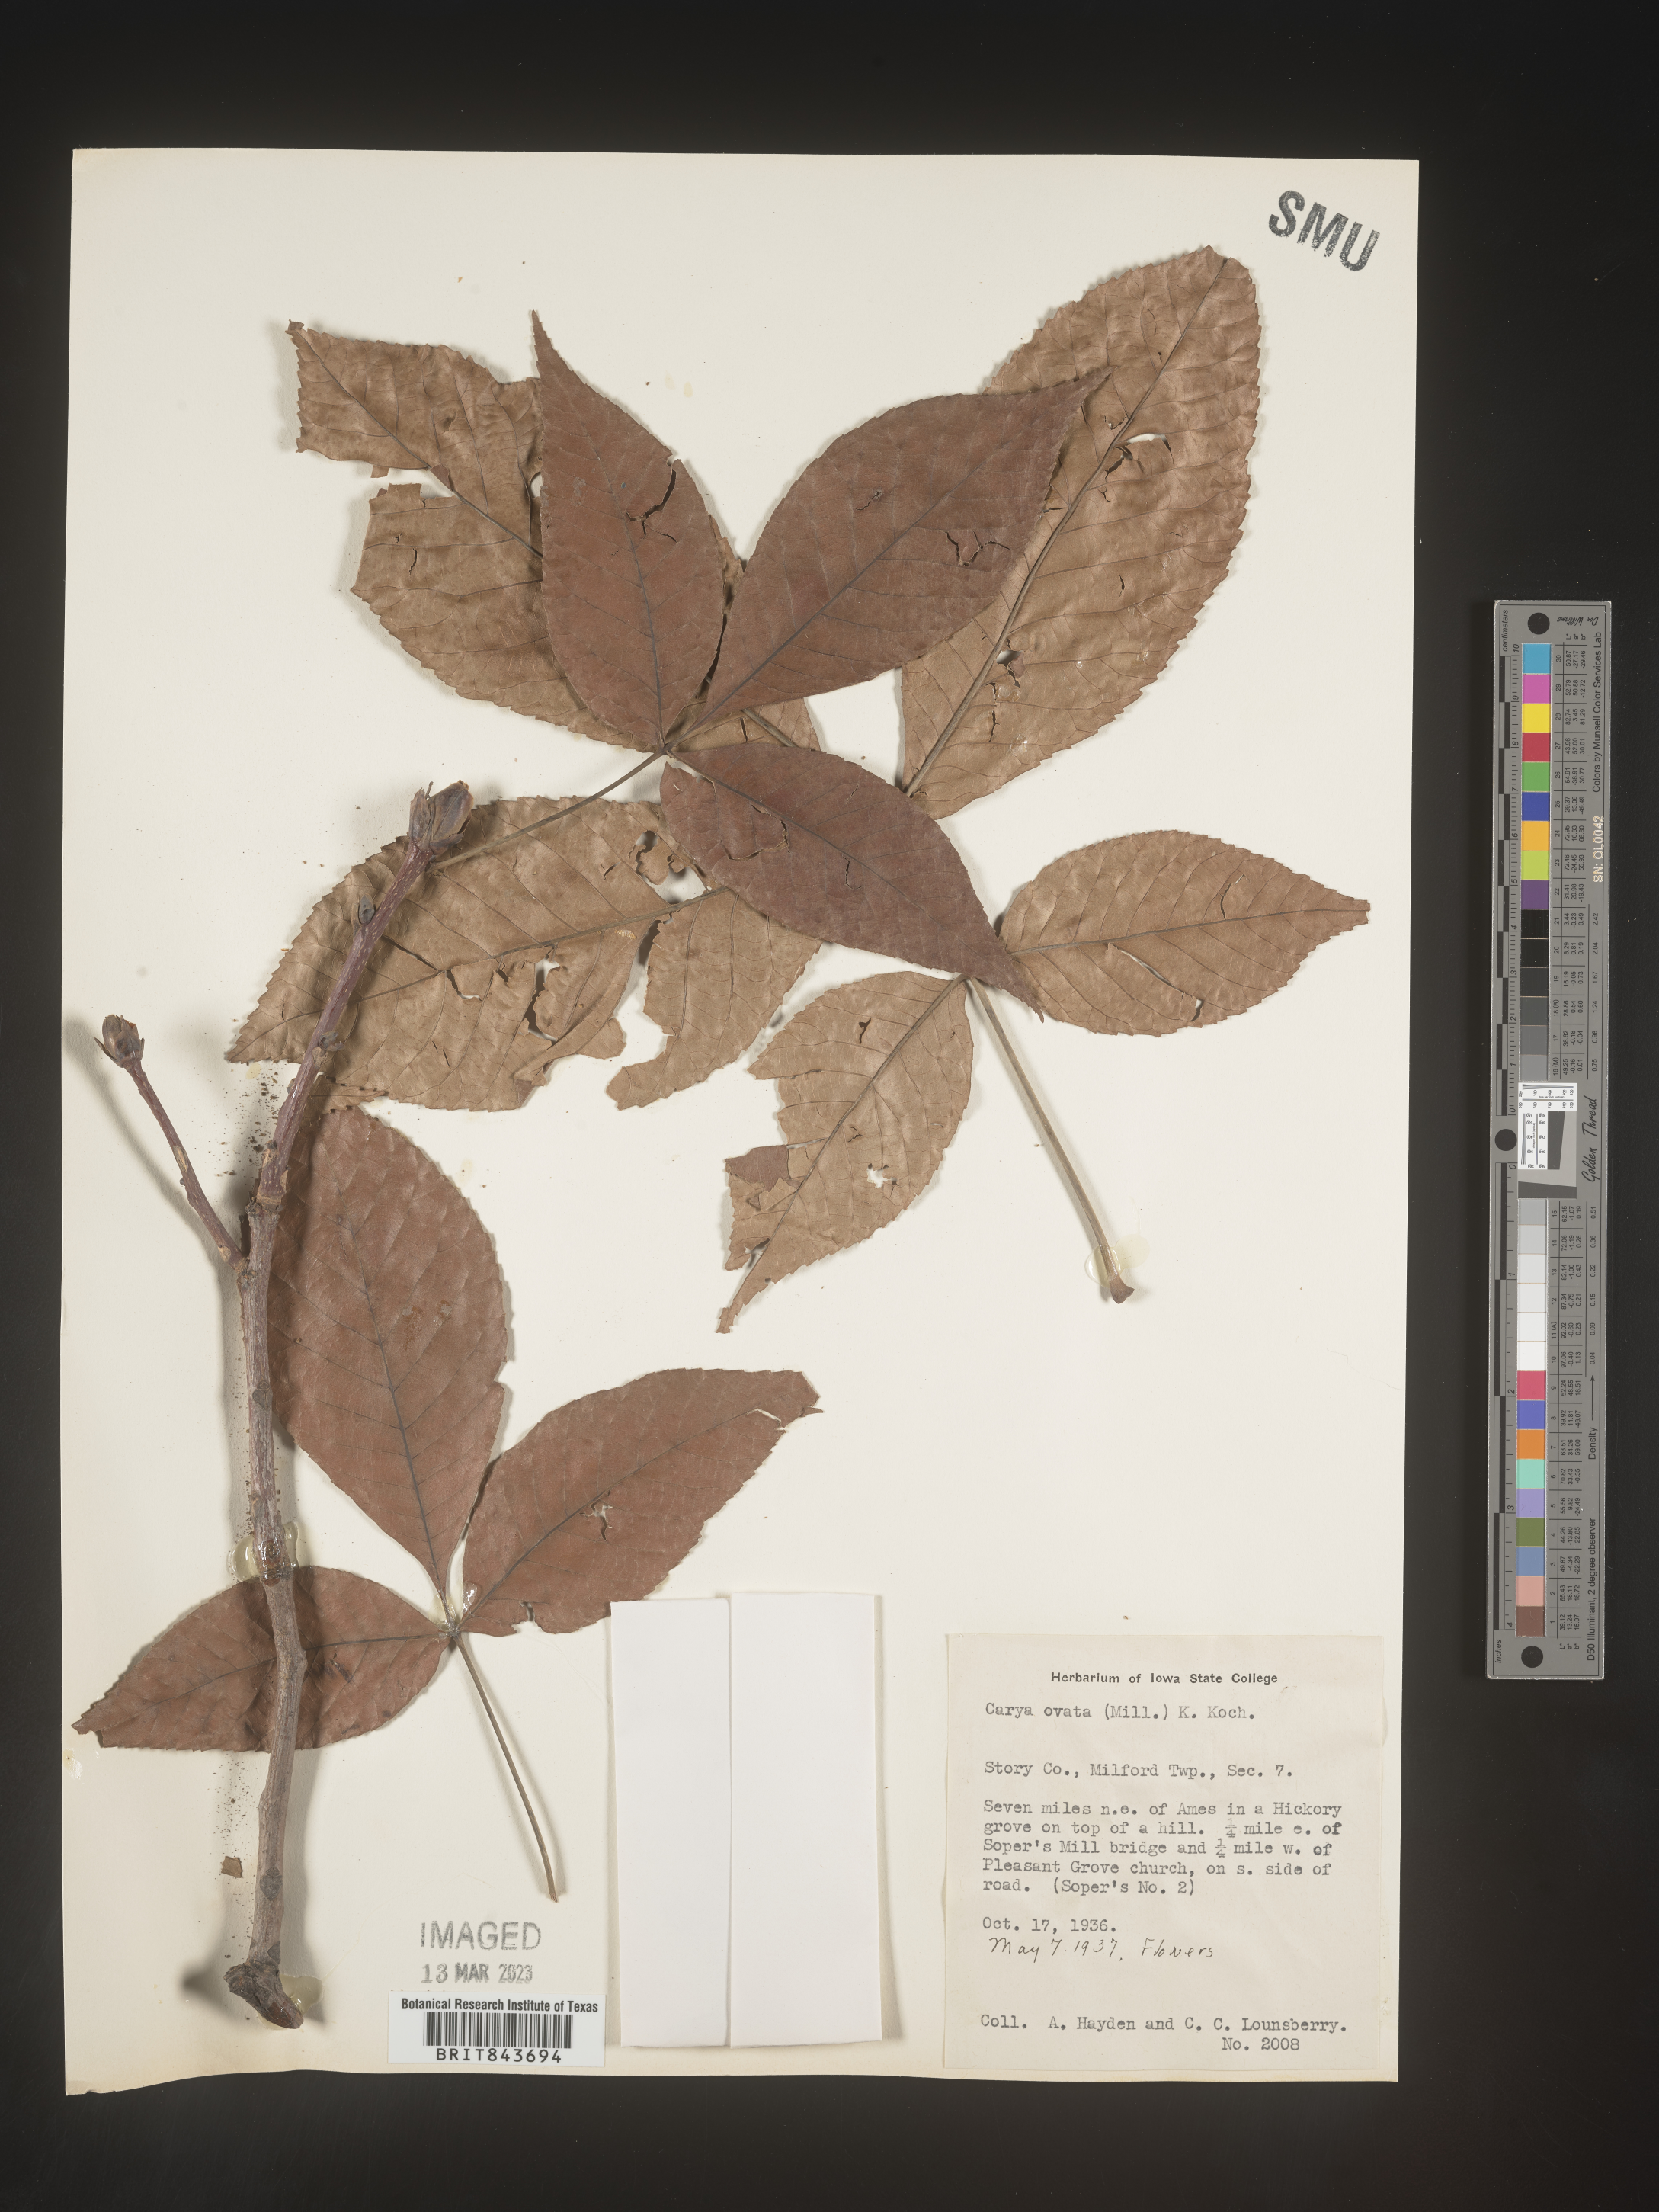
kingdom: Plantae
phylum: Tracheophyta
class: Magnoliopsida
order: Fagales
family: Juglandaceae
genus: Carya
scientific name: Carya ovata
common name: Shagbark hickory
